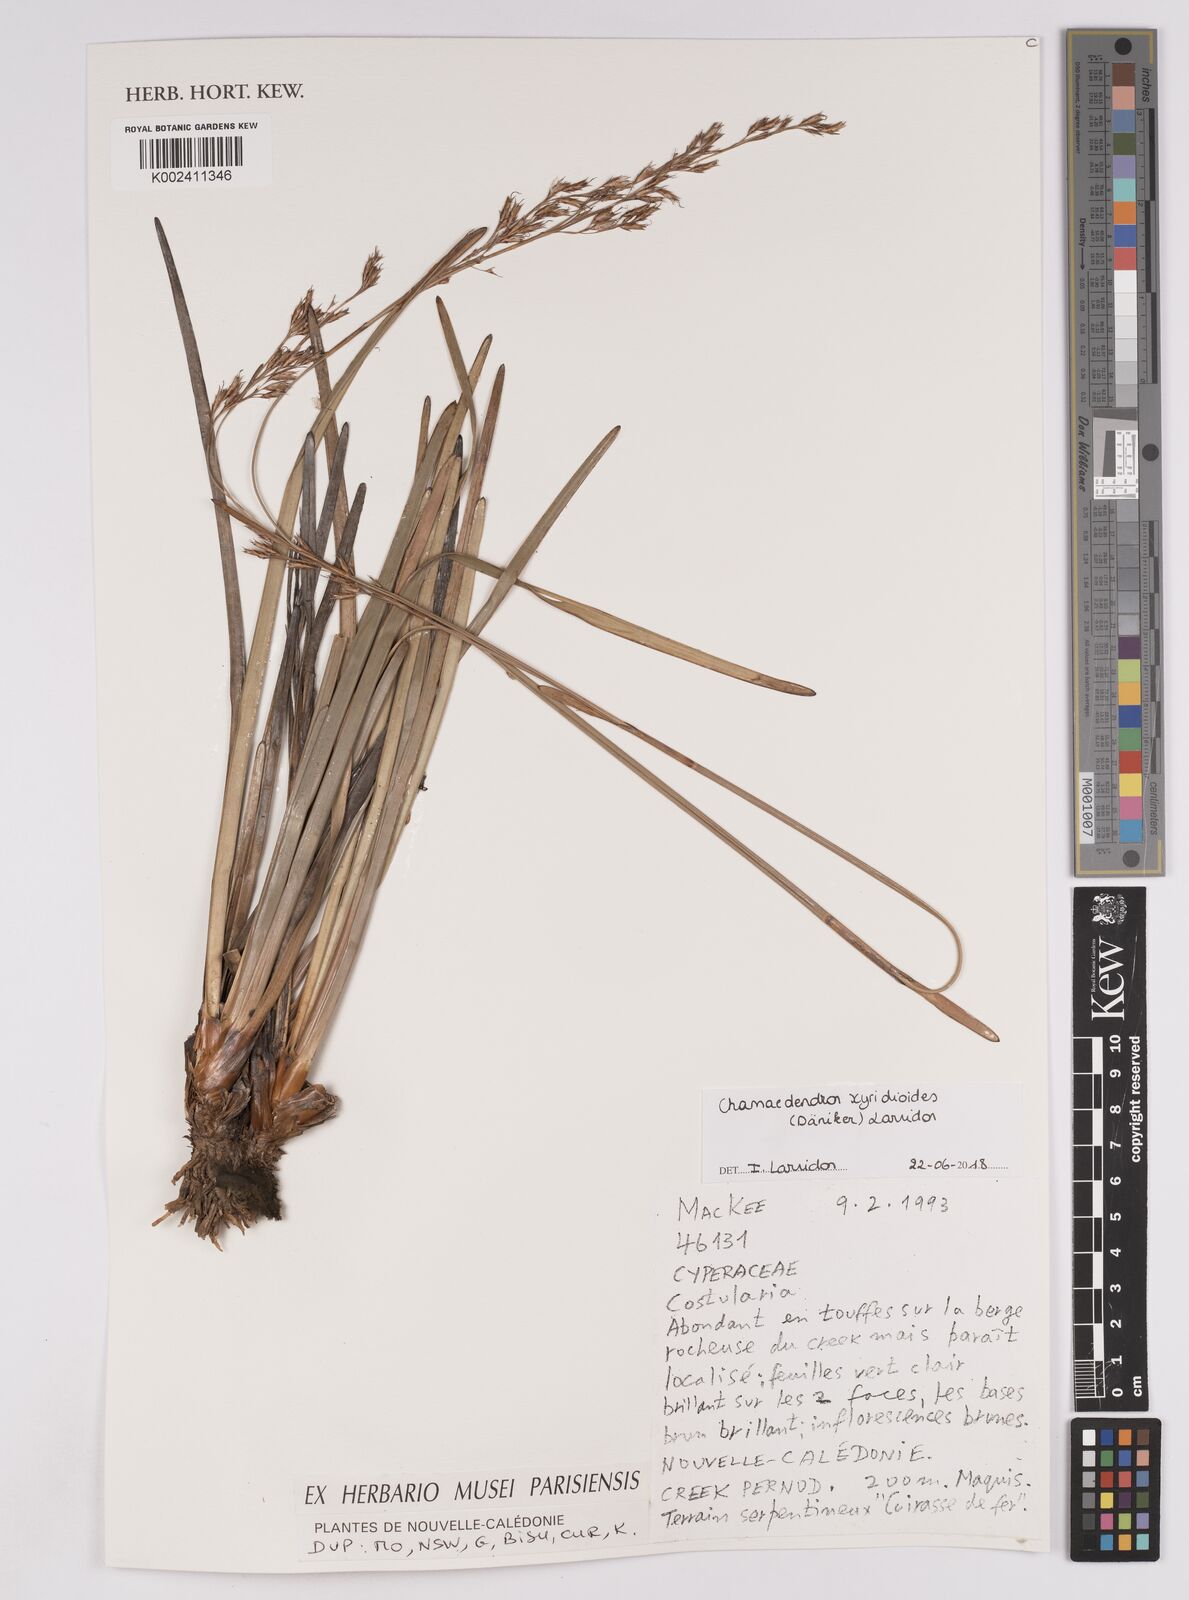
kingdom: Plantae
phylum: Tracheophyta
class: Liliopsida
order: Poales
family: Cyperaceae
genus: Chamaedendron
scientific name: Chamaedendron xyridioides
